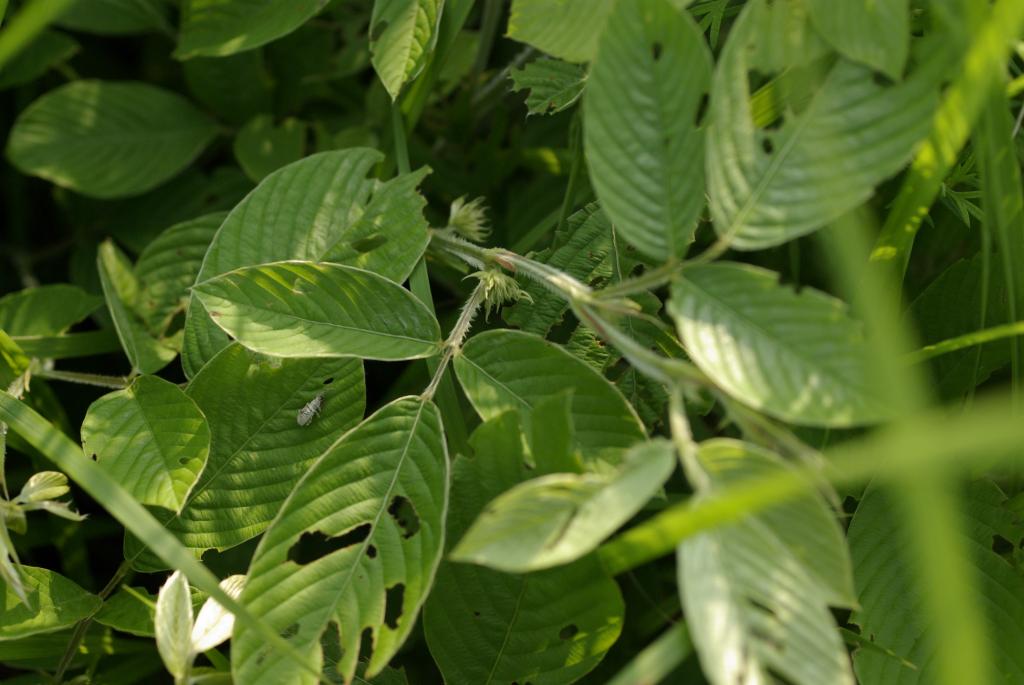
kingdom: Plantae
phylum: Tracheophyta
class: Magnoliopsida
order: Fabales
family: Fabaceae
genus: Dendrolobium
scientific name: Dendrolobium trianglare
